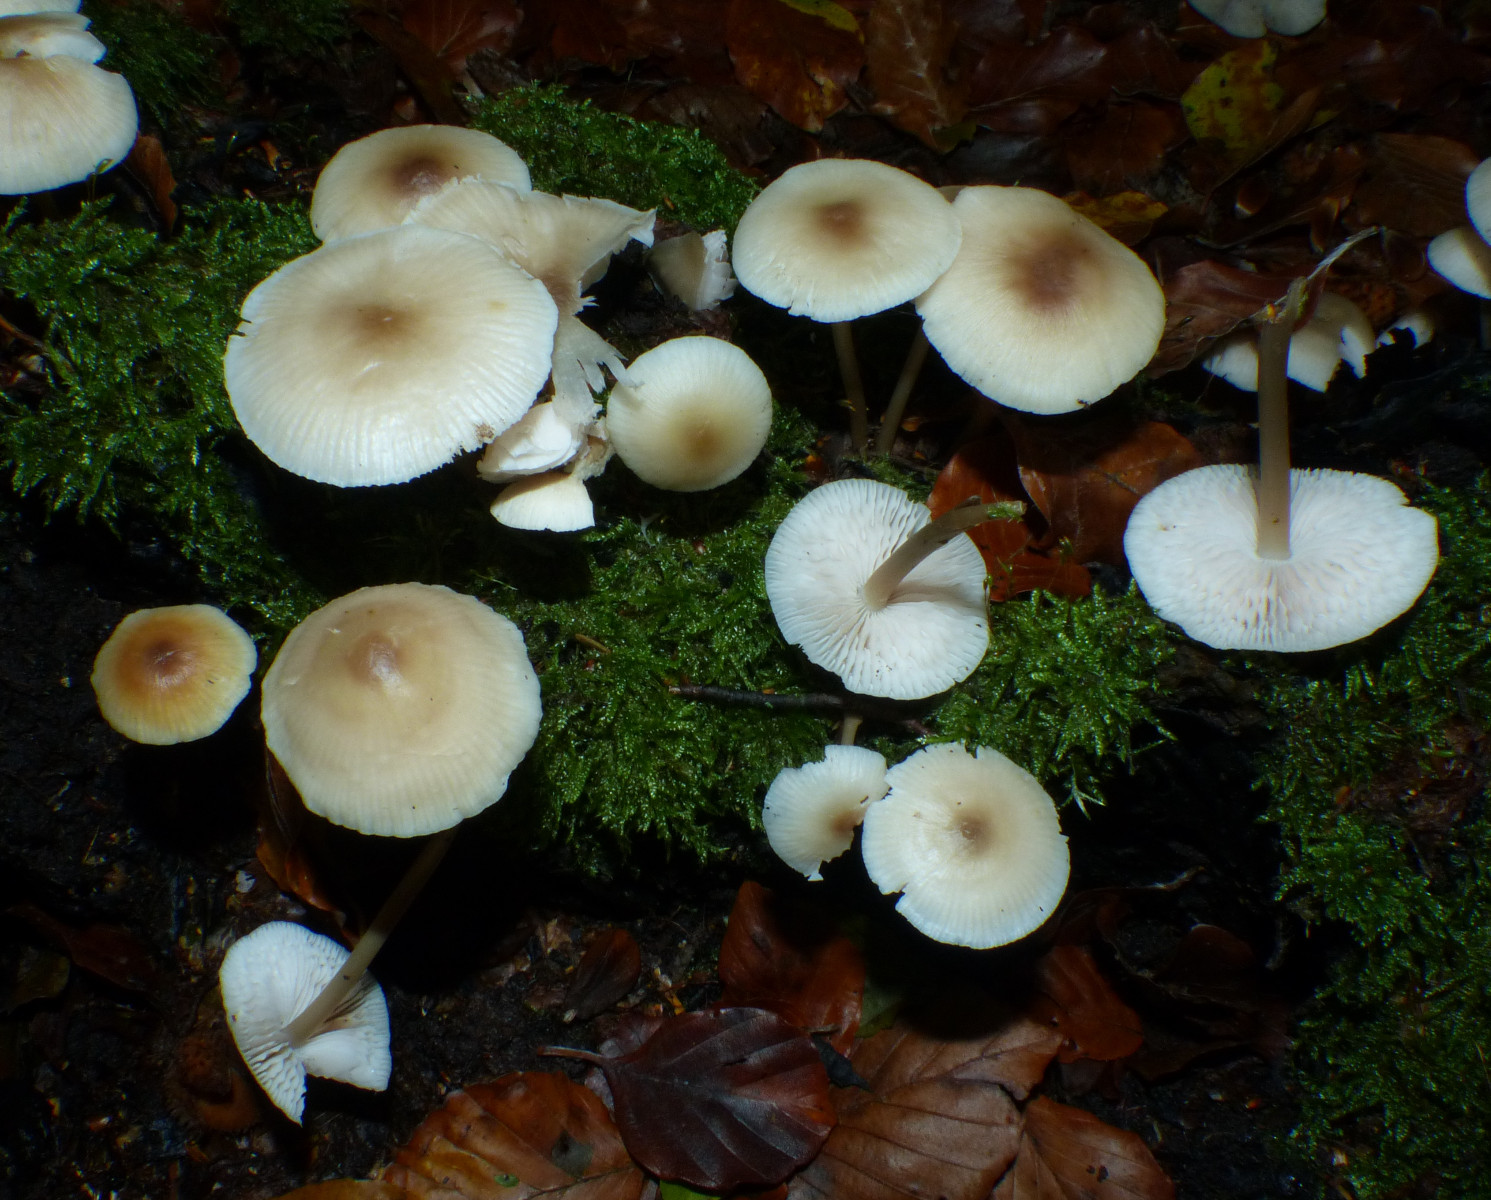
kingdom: Fungi
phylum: Basidiomycota
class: Agaricomycetes
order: Agaricales
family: Mycenaceae
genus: Mycena
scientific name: Mycena zephirus
